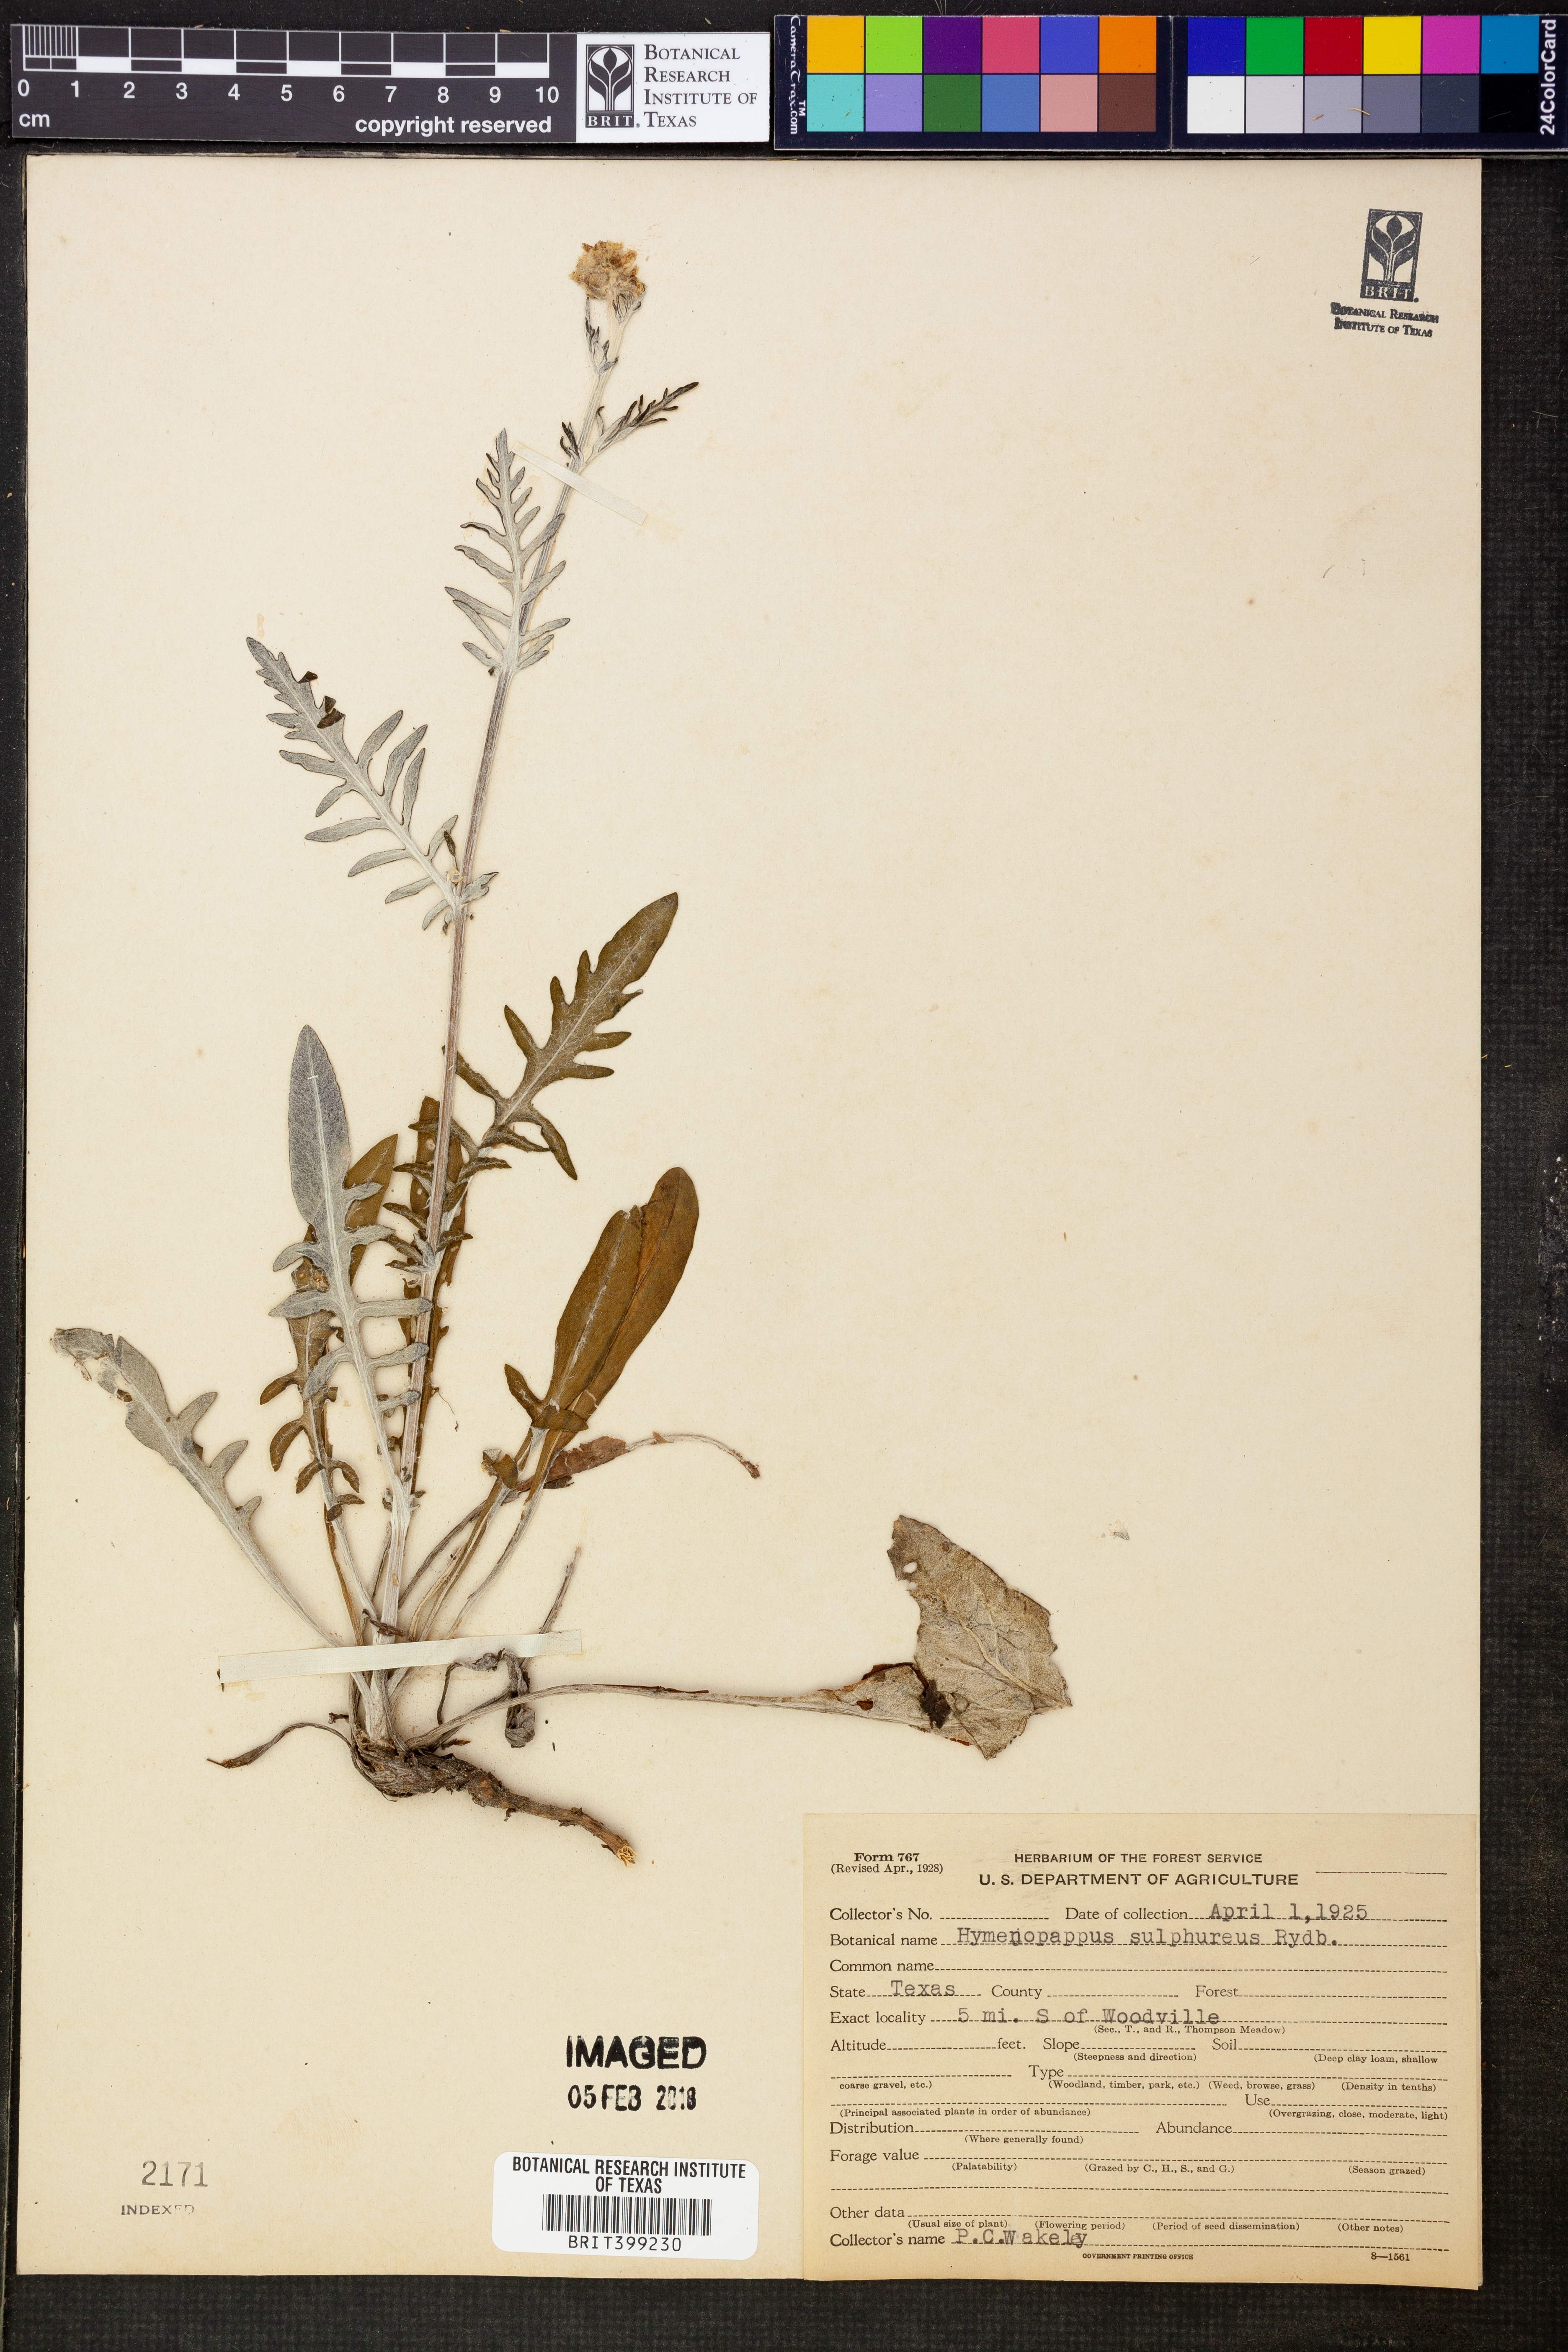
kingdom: Plantae
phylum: Tracheophyta
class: Magnoliopsida
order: Asterales
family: Asteraceae
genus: Hymenopappus
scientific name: Hymenopappus sulphureus
